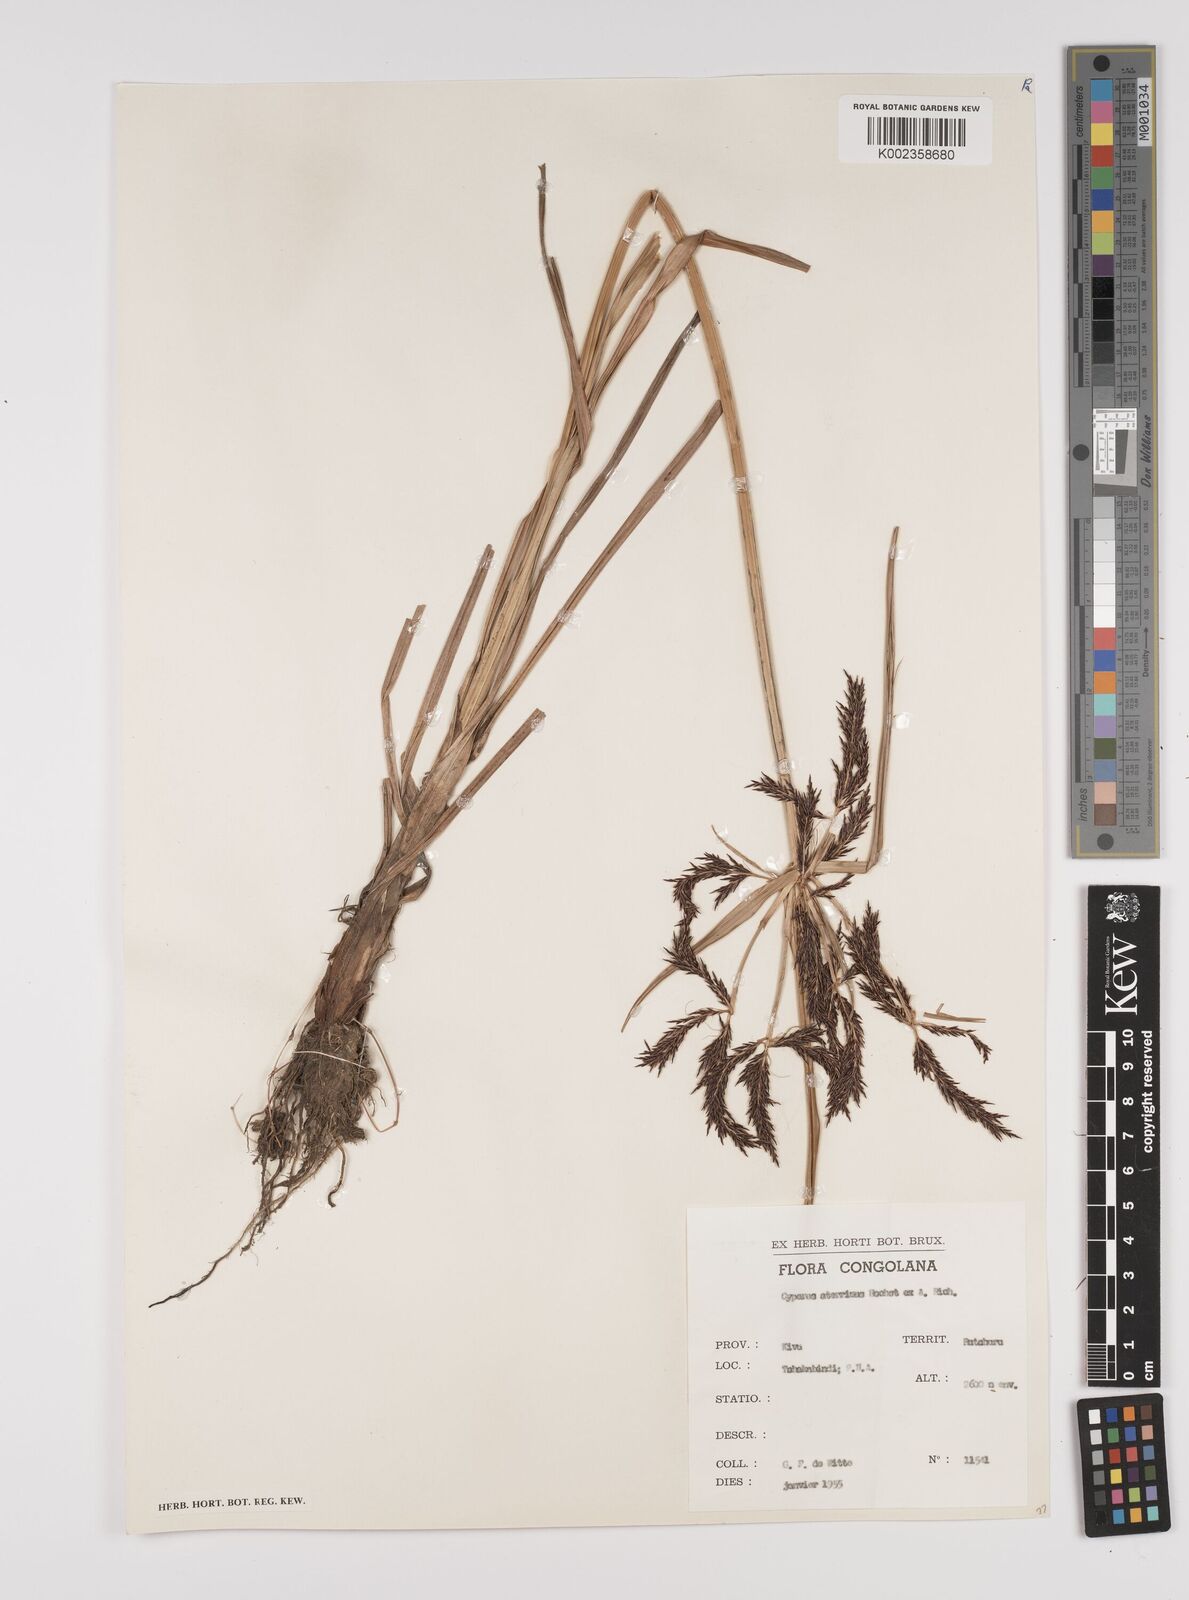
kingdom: Plantae
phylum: Tracheophyta
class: Liliopsida
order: Poales
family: Cyperaceae
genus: Cyperus
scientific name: Cyperus aterrimus
